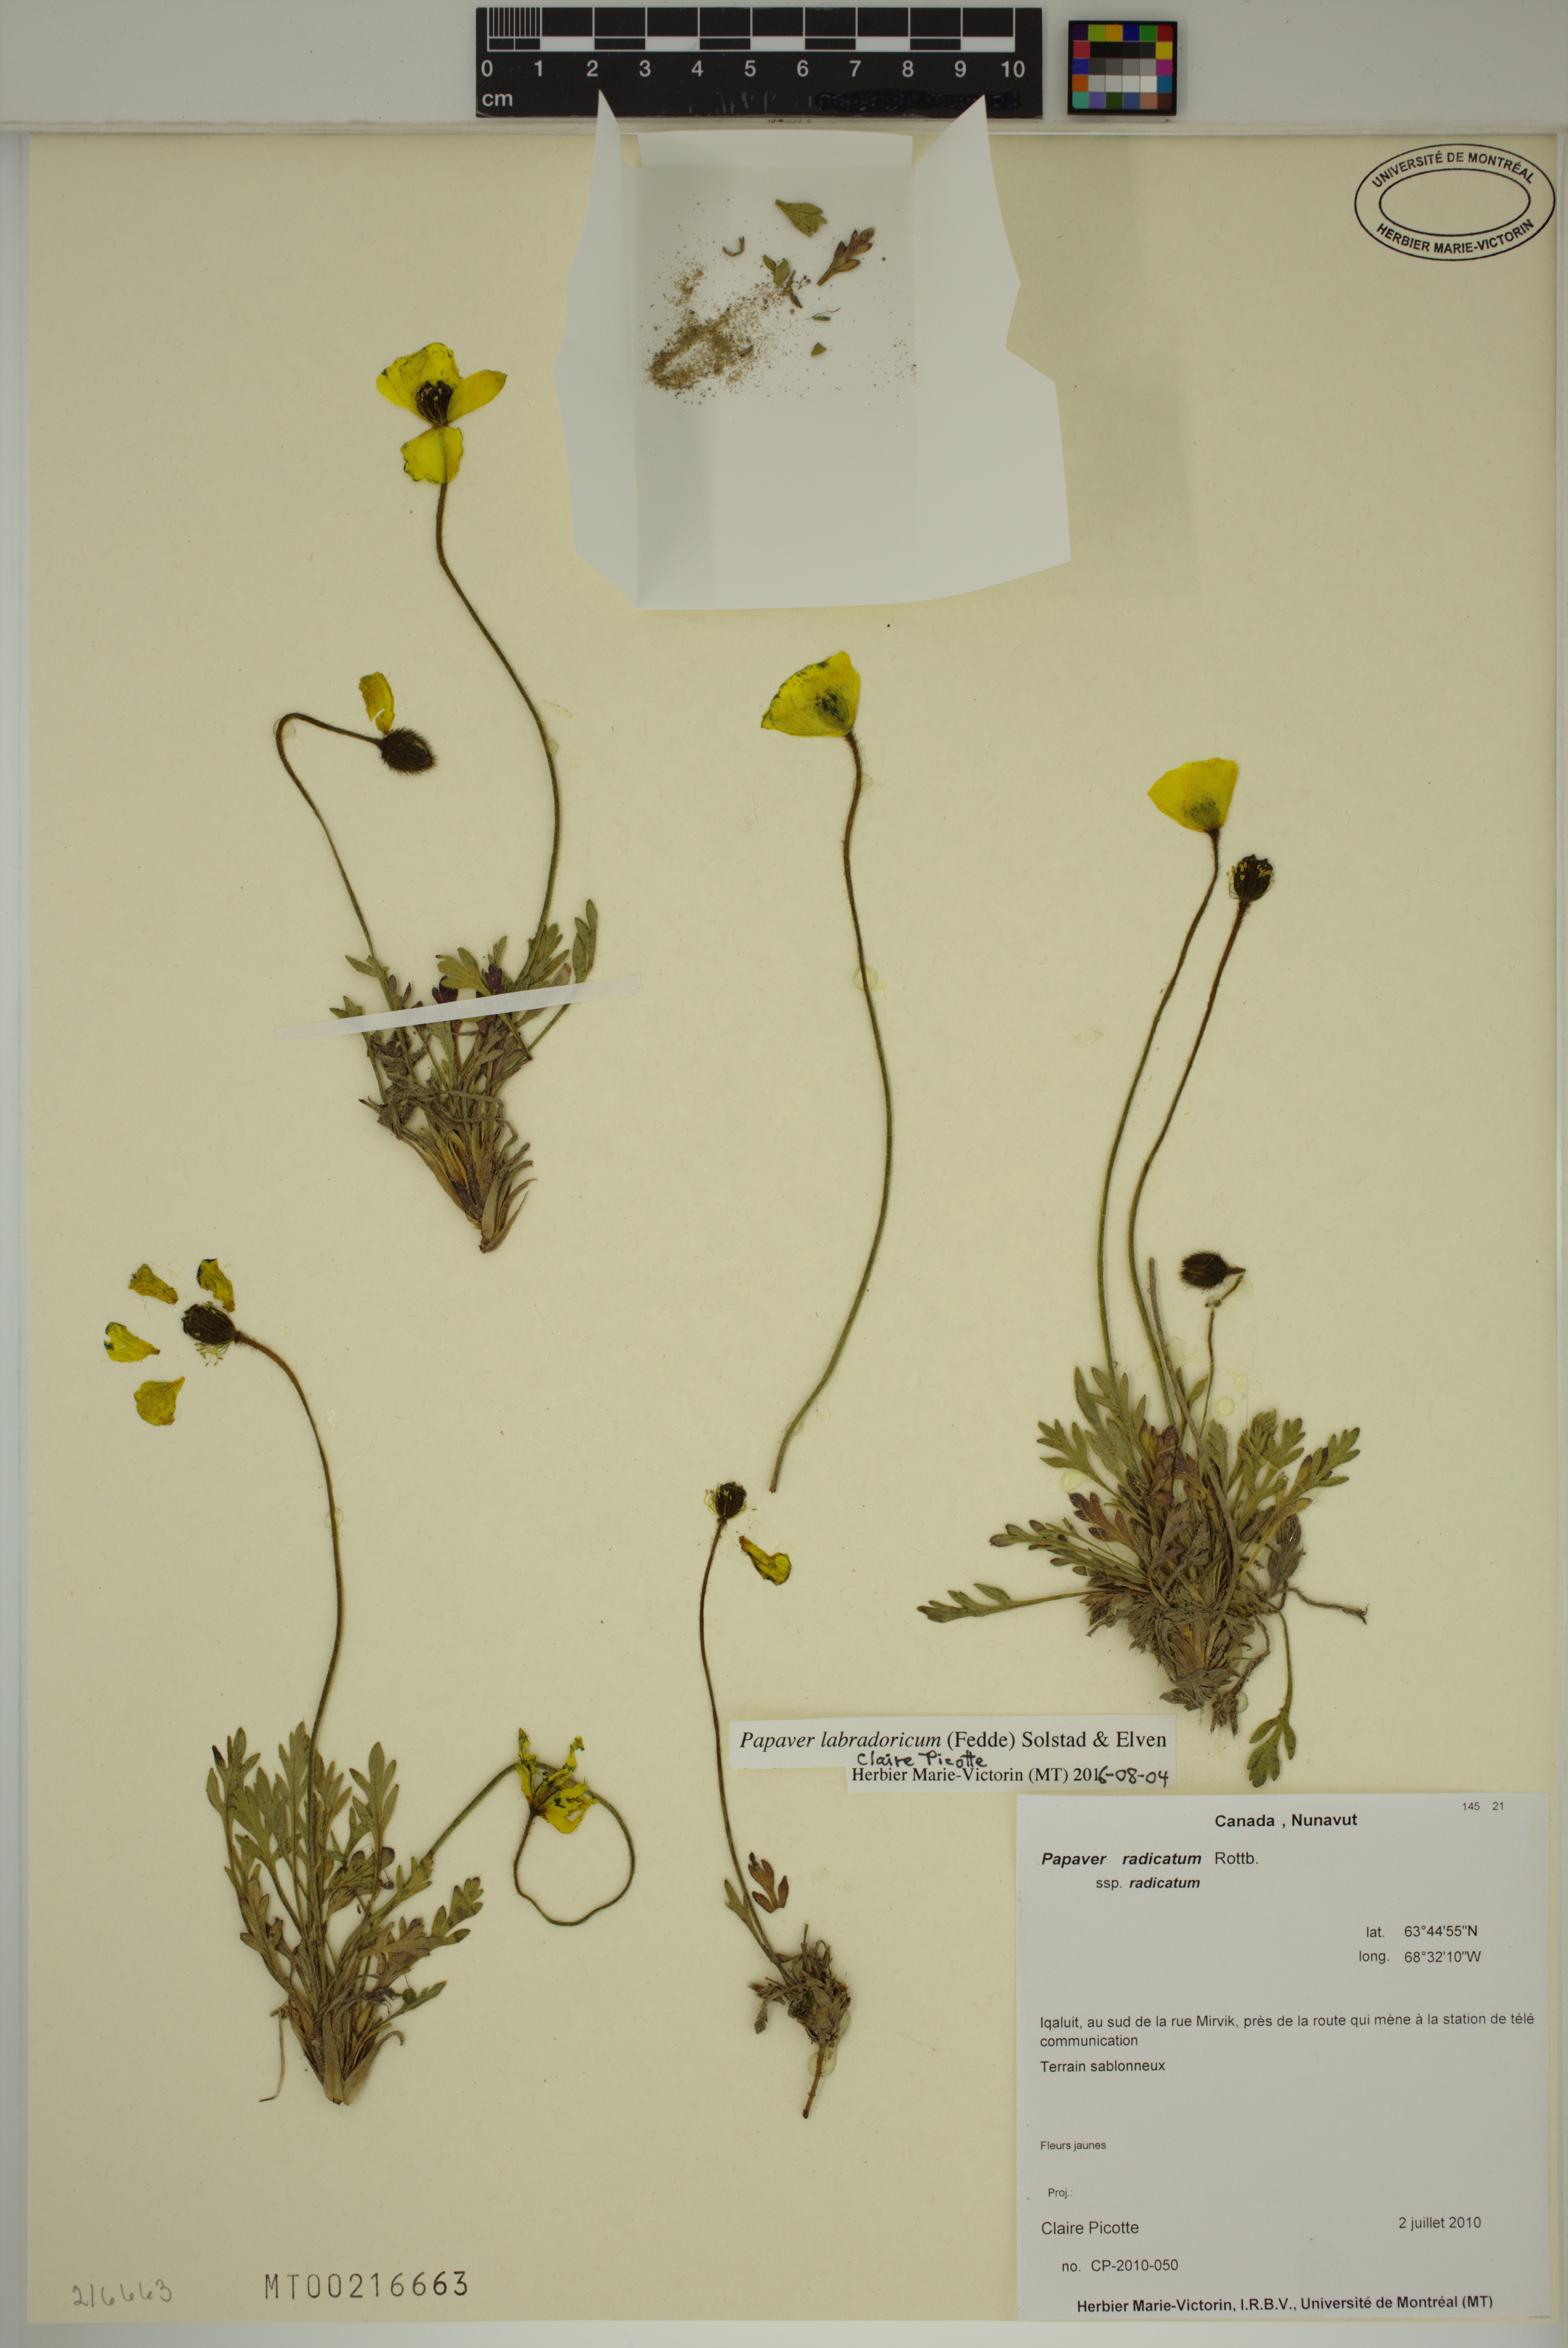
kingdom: Plantae
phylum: Tracheophyta
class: Magnoliopsida
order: Ranunculales
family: Papaveraceae
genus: Papaver
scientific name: Papaver radicatum
